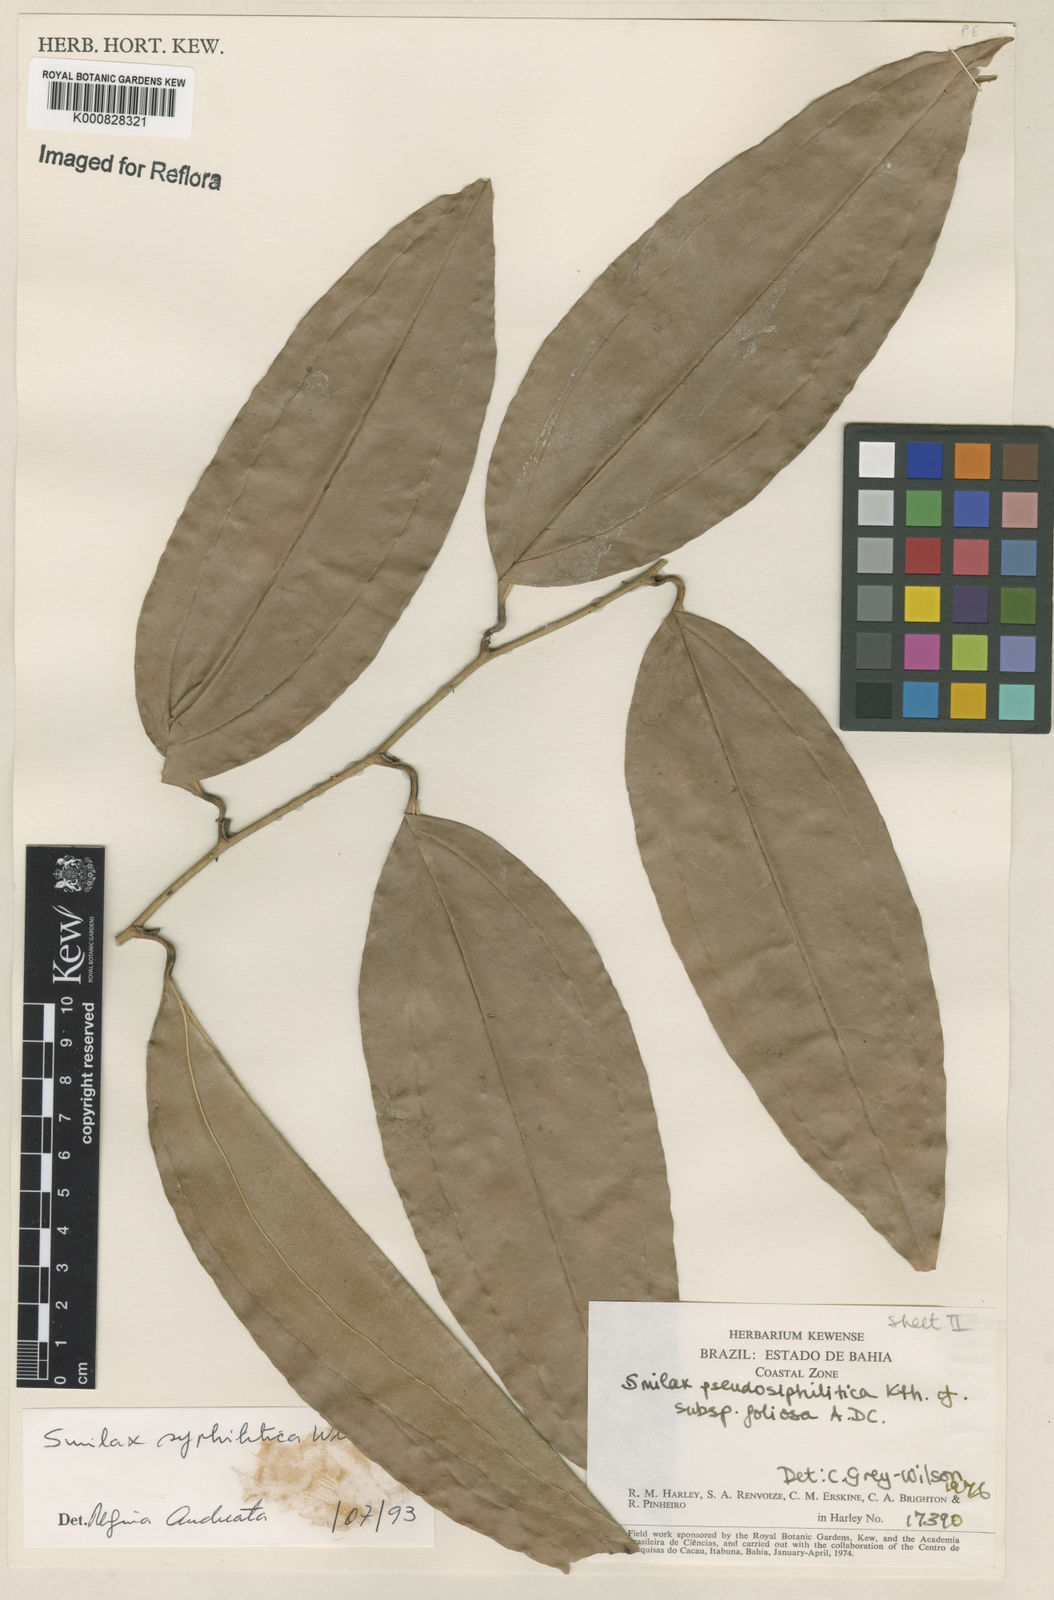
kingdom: Plantae
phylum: Tracheophyta
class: Liliopsida
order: Liliales
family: Smilacaceae
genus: Smilax
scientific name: Smilax siphilitica
